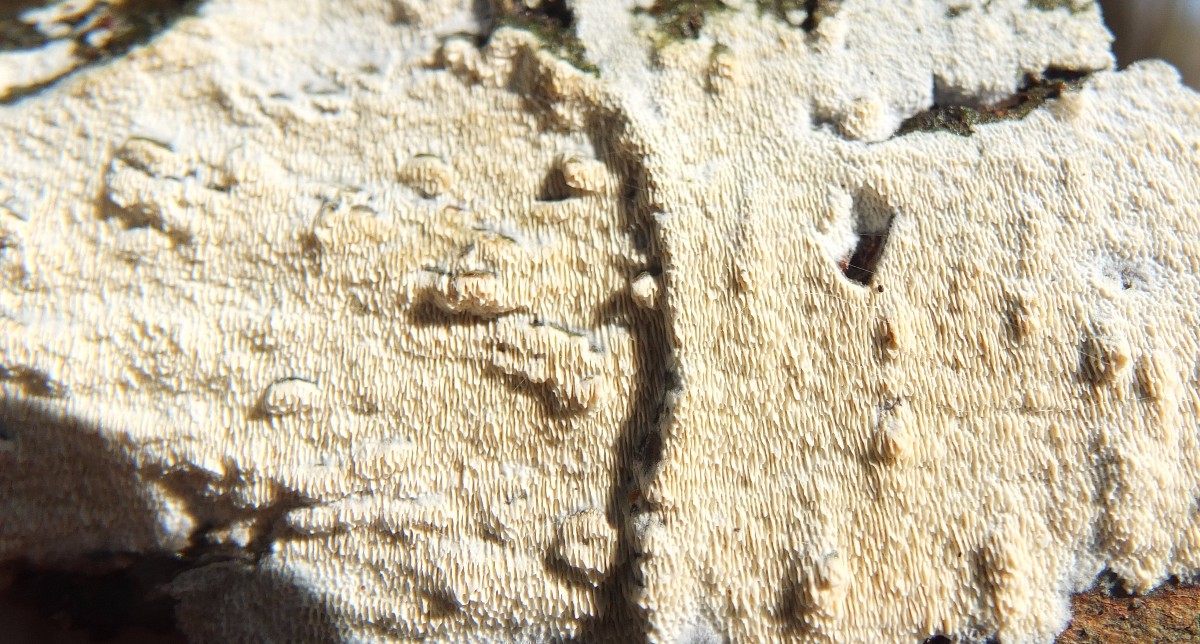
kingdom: Fungi
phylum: Basidiomycota
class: Agaricomycetes
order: Corticiales
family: Corticiaceae
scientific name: Corticiaceae
